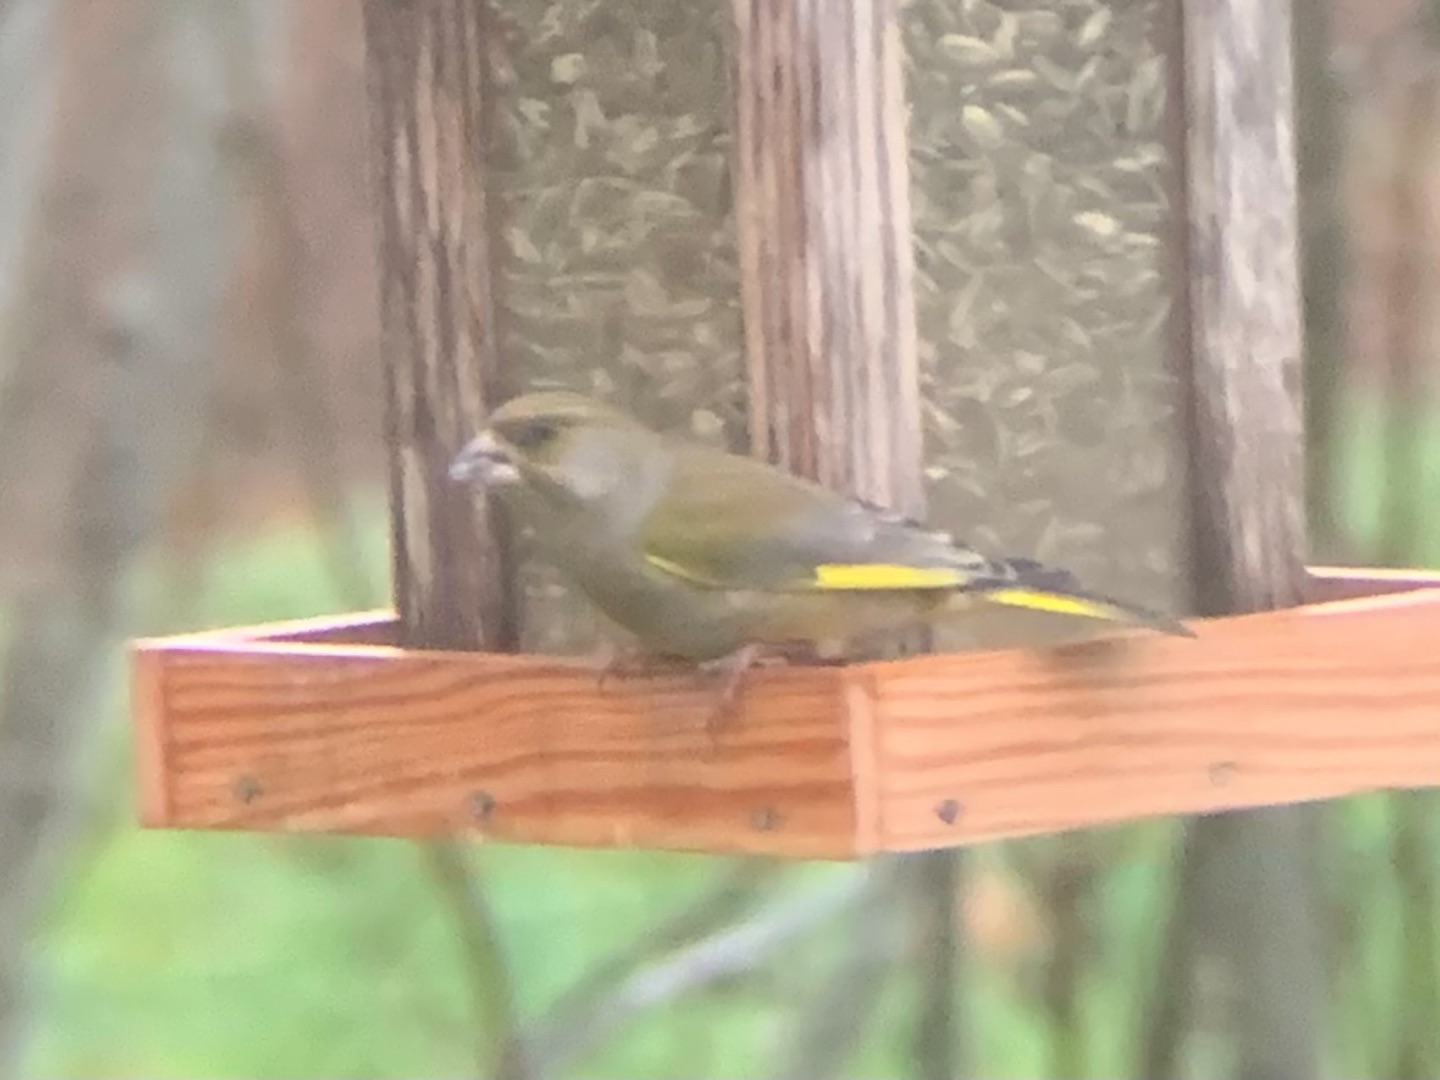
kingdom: Plantae
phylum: Tracheophyta
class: Liliopsida
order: Poales
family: Poaceae
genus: Chloris
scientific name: Chloris chloris
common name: Grønirisk
